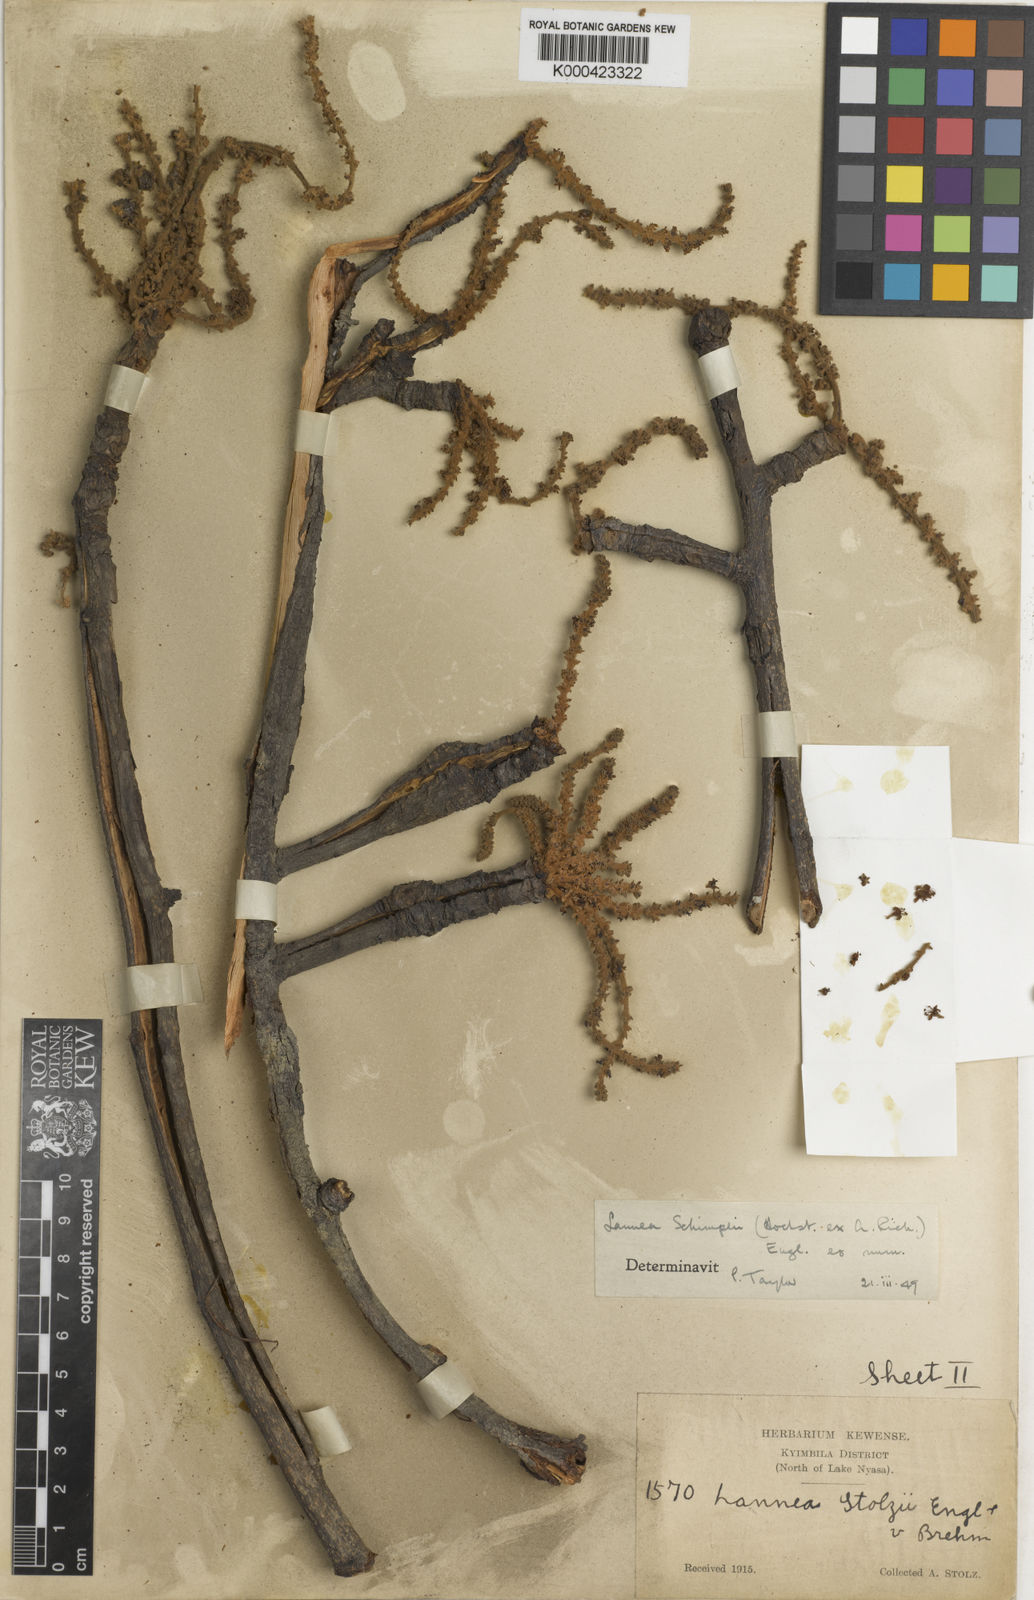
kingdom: Plantae
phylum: Tracheophyta
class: Magnoliopsida
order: Sapindales
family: Anacardiaceae
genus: Lannea
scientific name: Lannea schimperi
